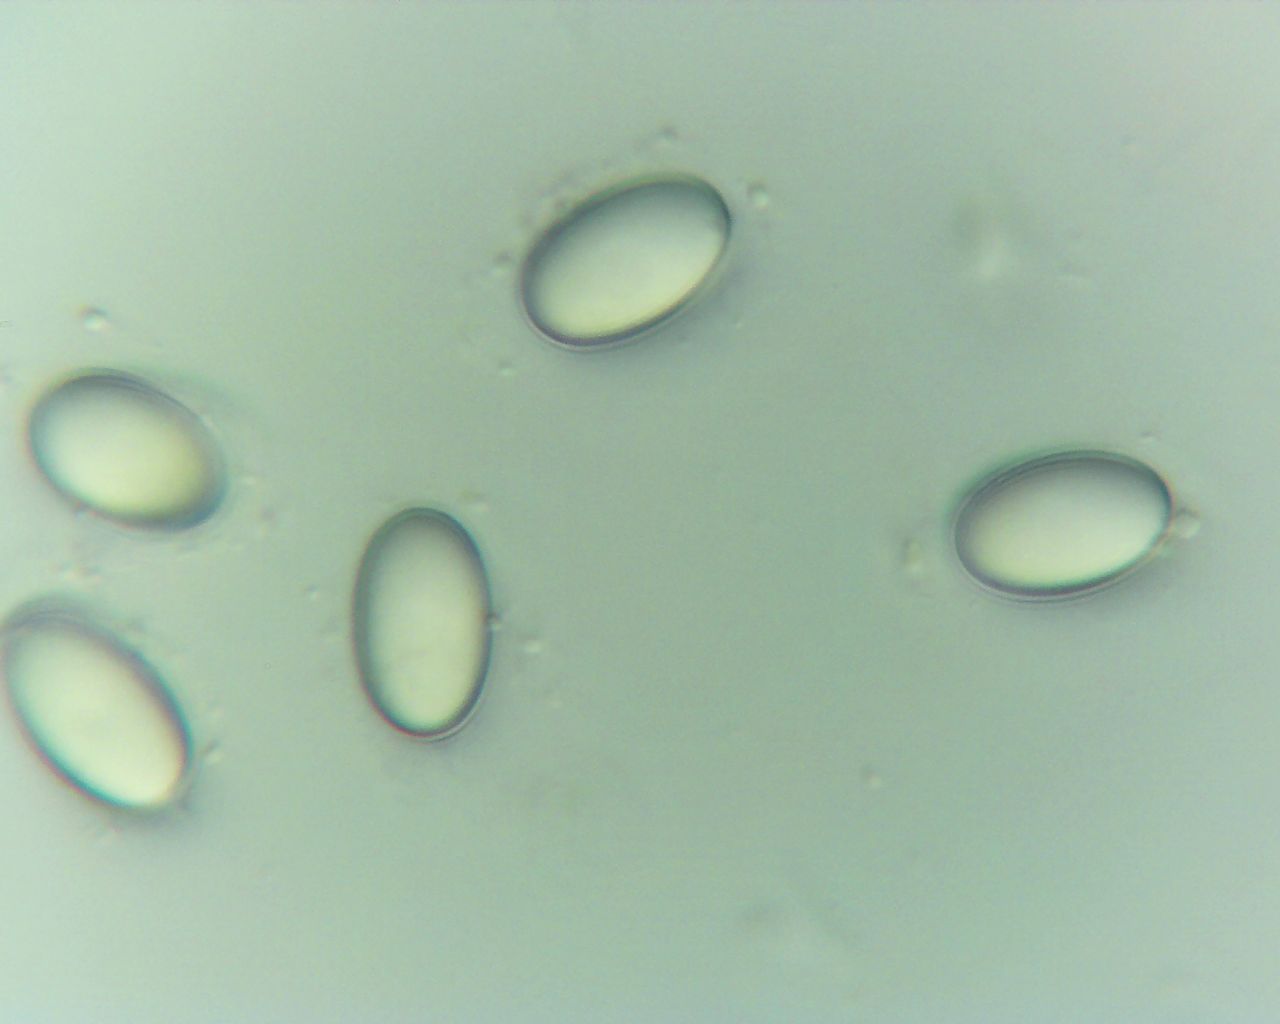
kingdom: Fungi
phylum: Ascomycota
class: Pezizomycetes
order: Pezizales
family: Ascodesmidaceae
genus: Lasiobolus
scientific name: Lasiobolus papillatus
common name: enradet øjebæger
